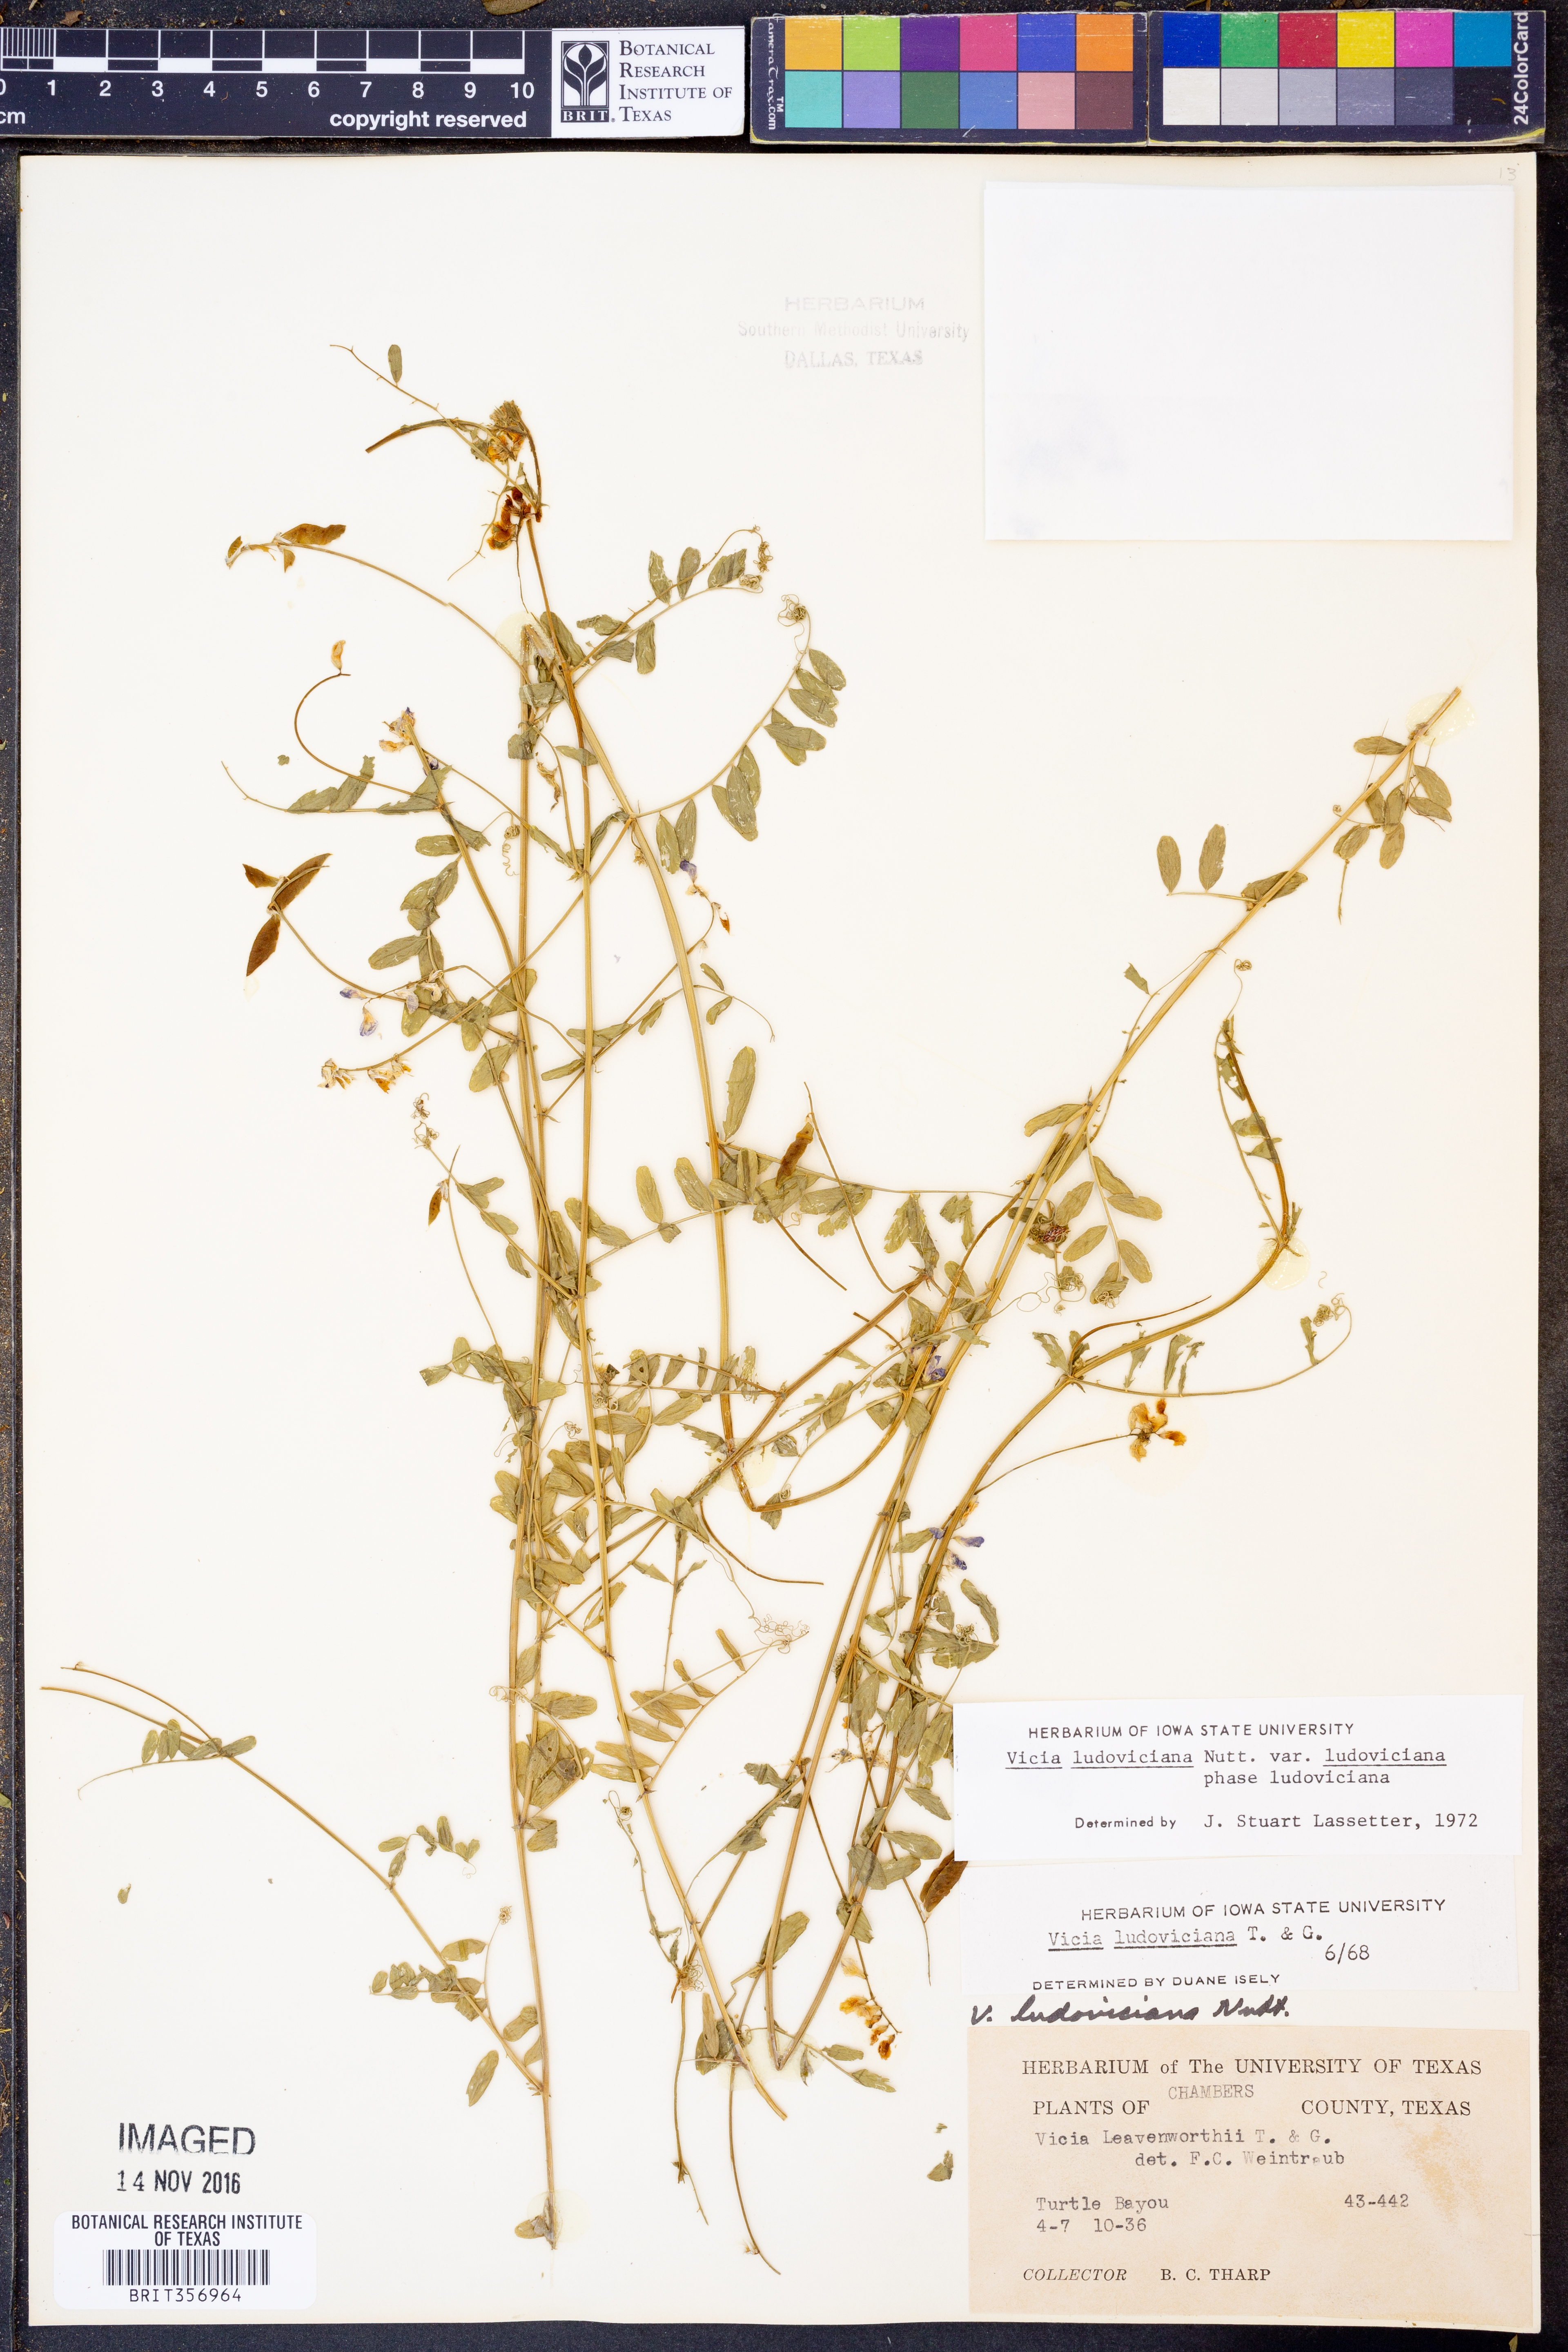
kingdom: Plantae
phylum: Tracheophyta
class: Magnoliopsida
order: Fabales
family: Fabaceae
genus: Vicia
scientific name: Vicia ludoviciana
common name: Louisiana vetch
